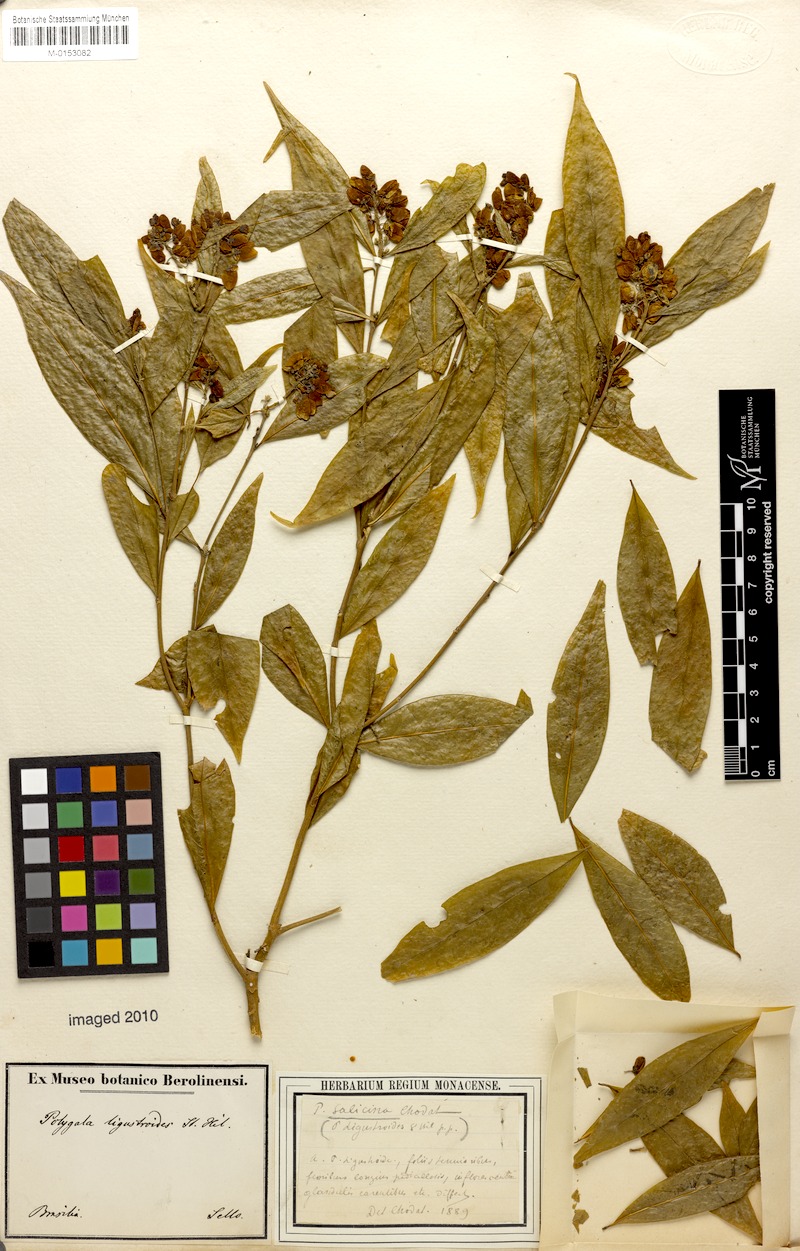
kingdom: Plantae
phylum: Tracheophyta
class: Magnoliopsida
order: Fabales
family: Polygalaceae
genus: Caamembeca
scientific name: Caamembeca oxyphylla
